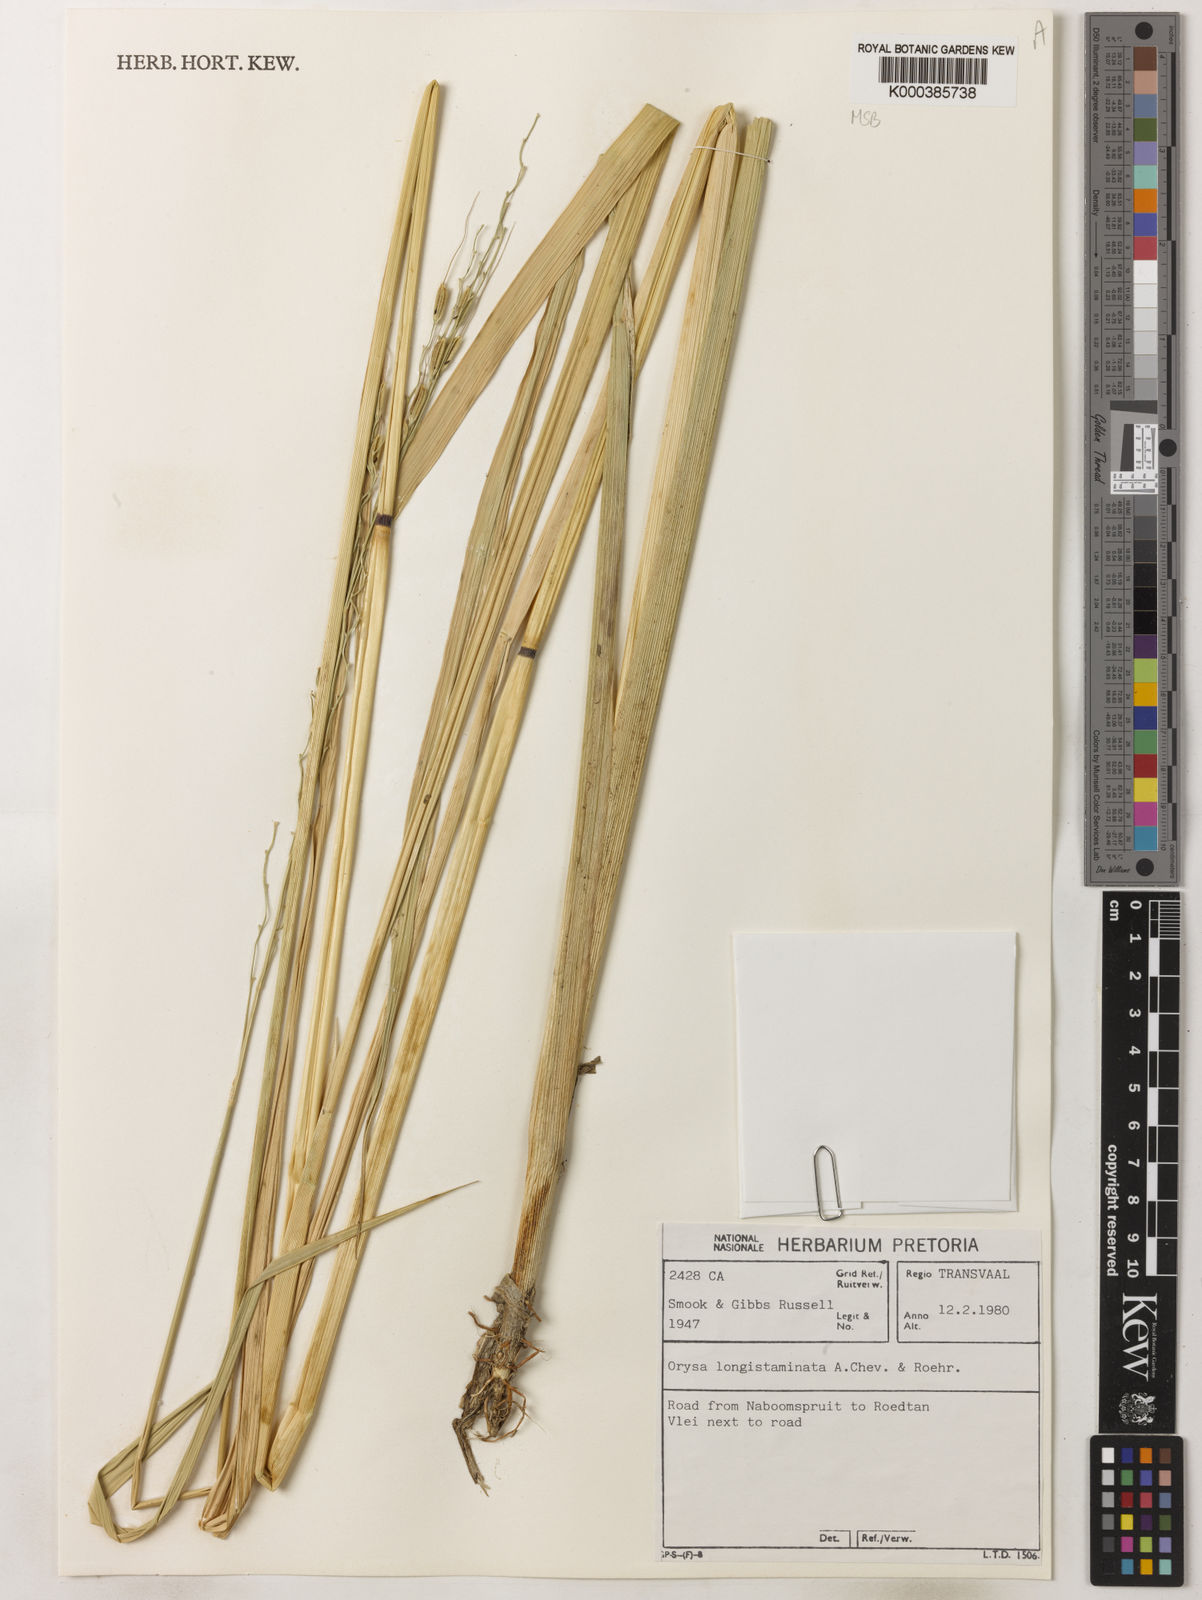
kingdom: Plantae
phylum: Tracheophyta
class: Liliopsida
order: Poales
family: Poaceae
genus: Oryza
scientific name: Oryza longistaminata
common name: Red rice
